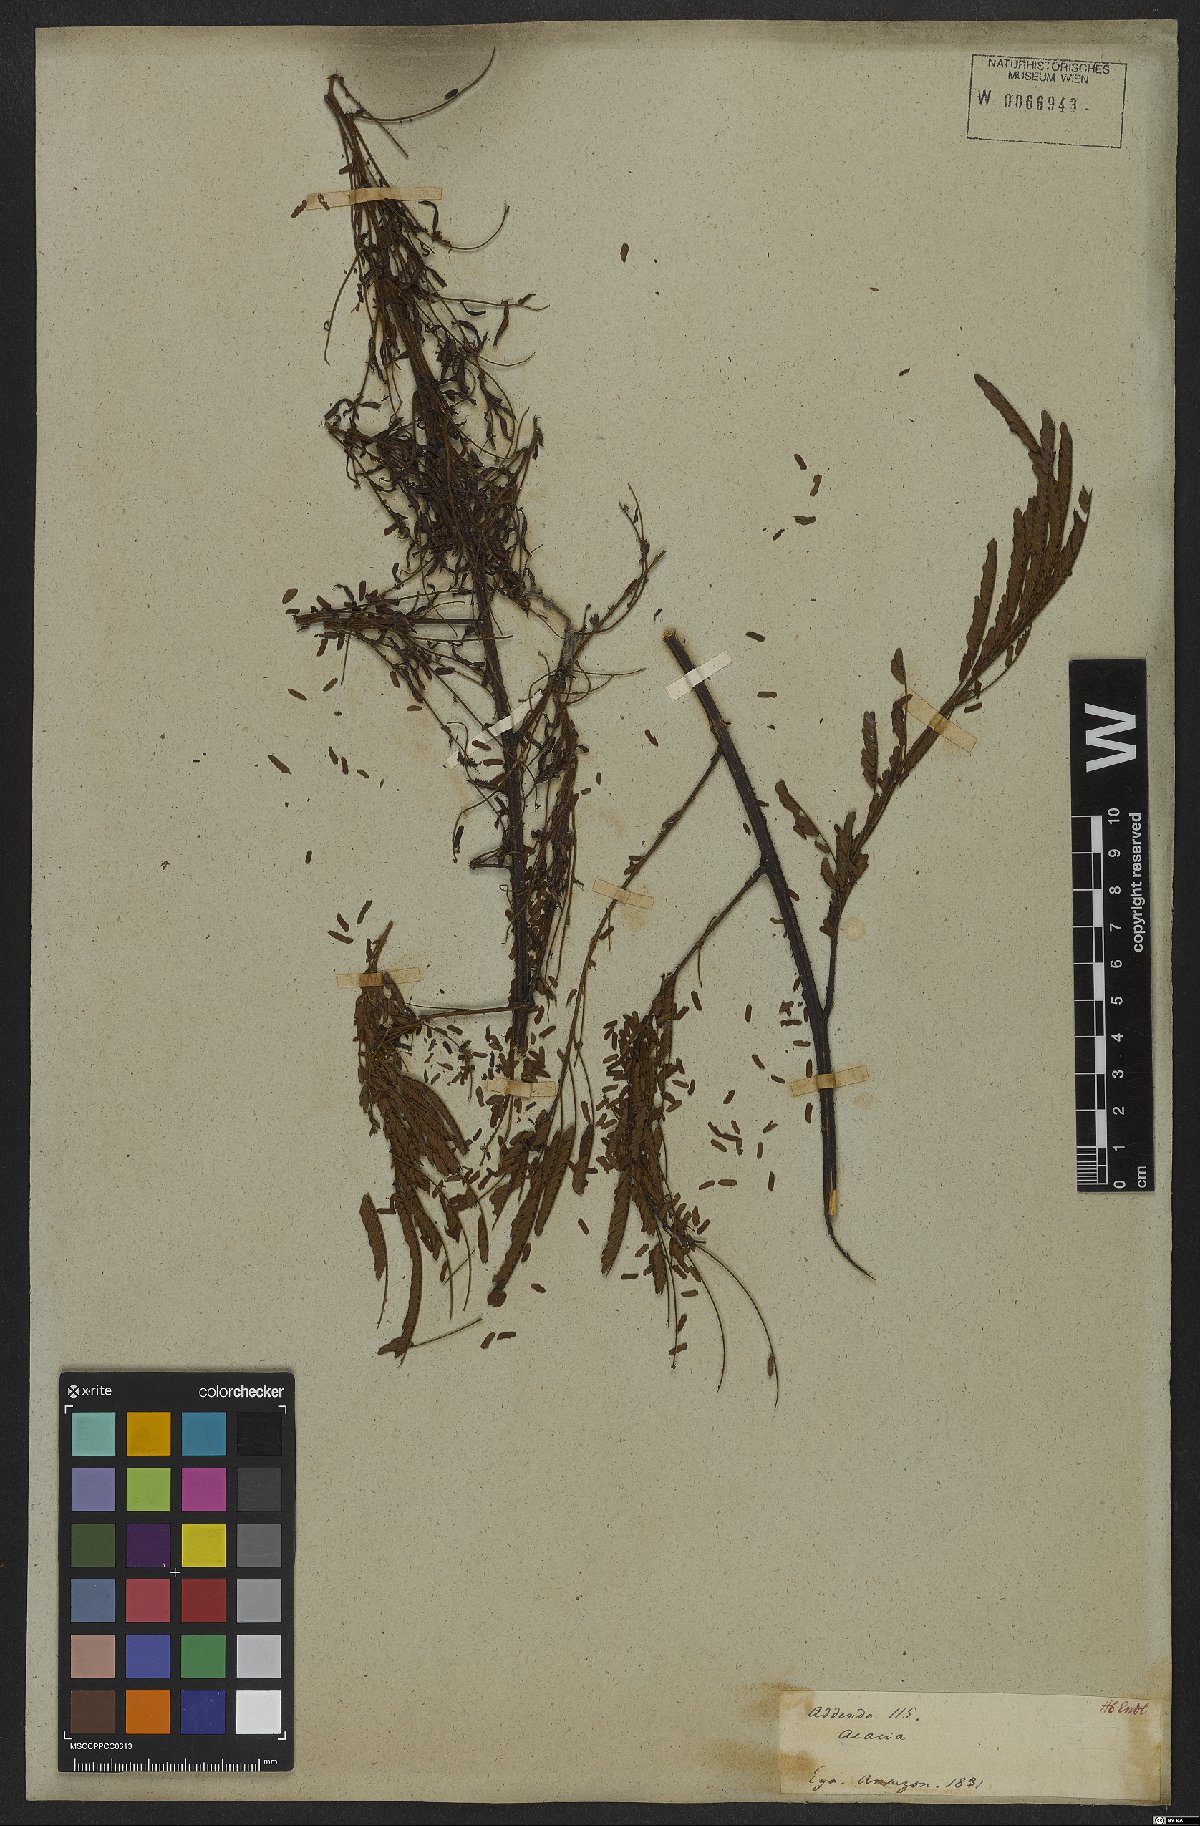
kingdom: Plantae
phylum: Tracheophyta
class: Magnoliopsida
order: Fabales
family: Fabaceae
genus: Mimosa
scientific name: Mimosa myriadenia
